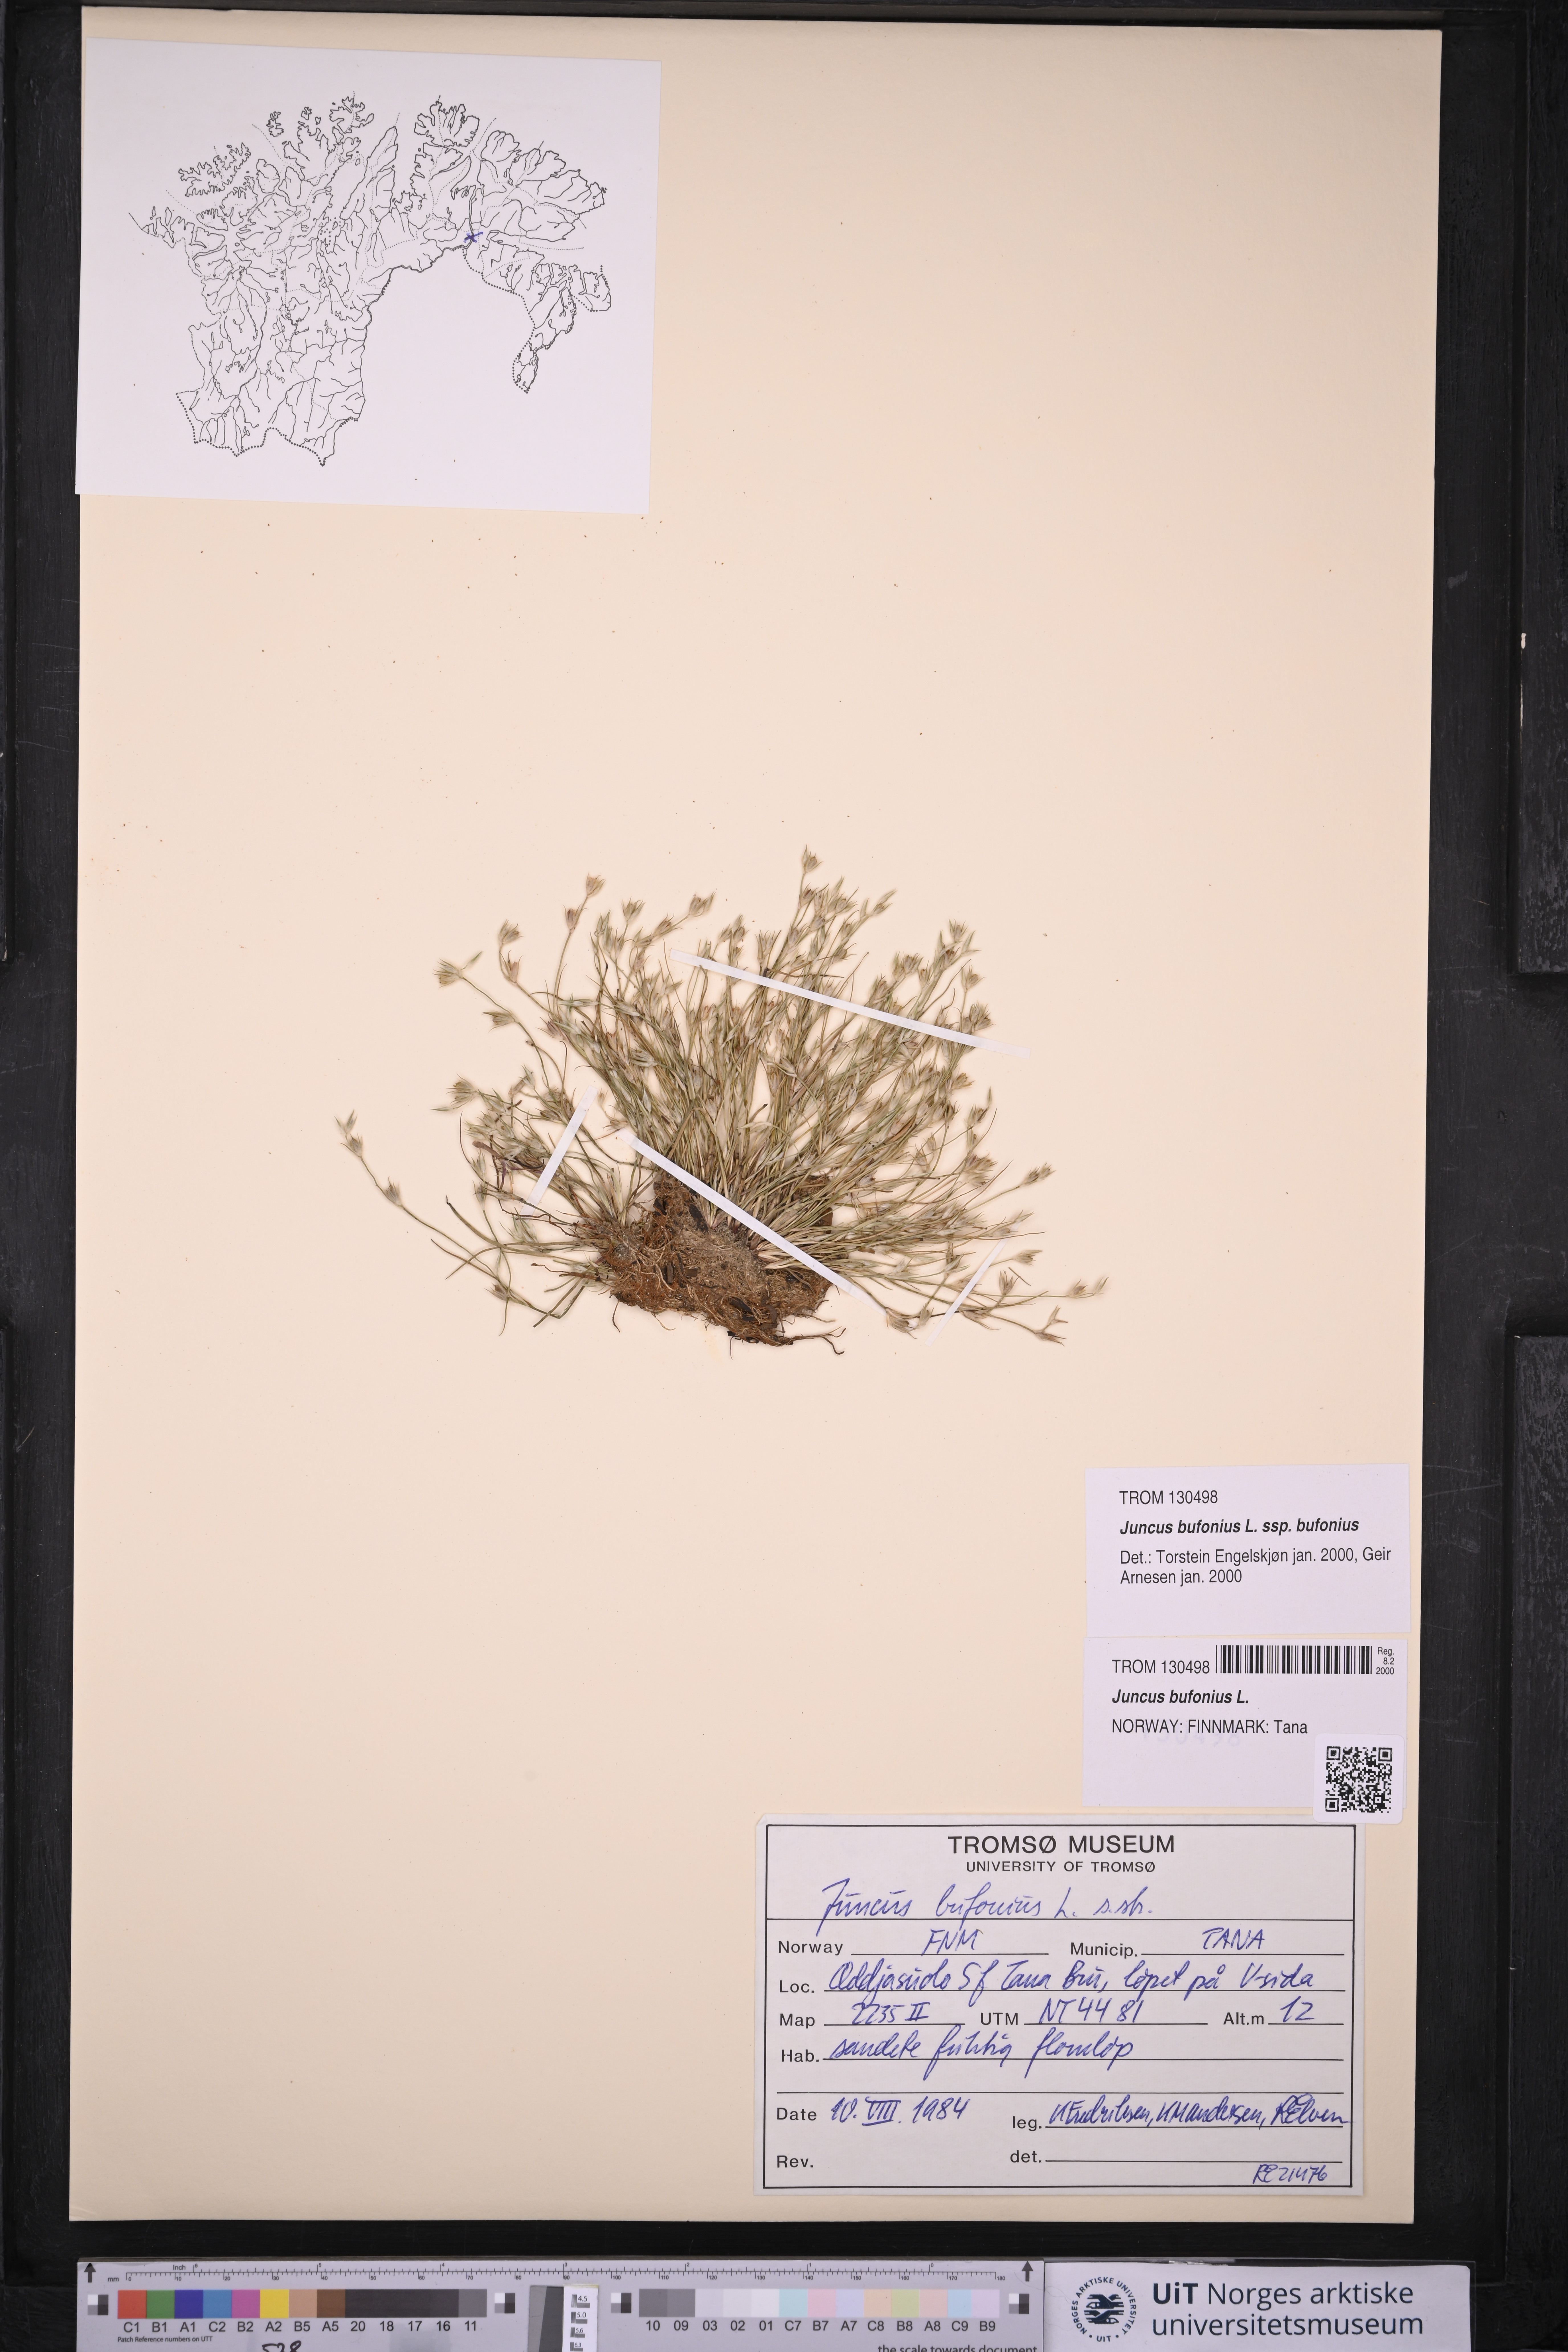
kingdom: Plantae
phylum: Tracheophyta
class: Liliopsida
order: Poales
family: Juncaceae
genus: Juncus
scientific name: Juncus bufonius
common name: Toad rush
